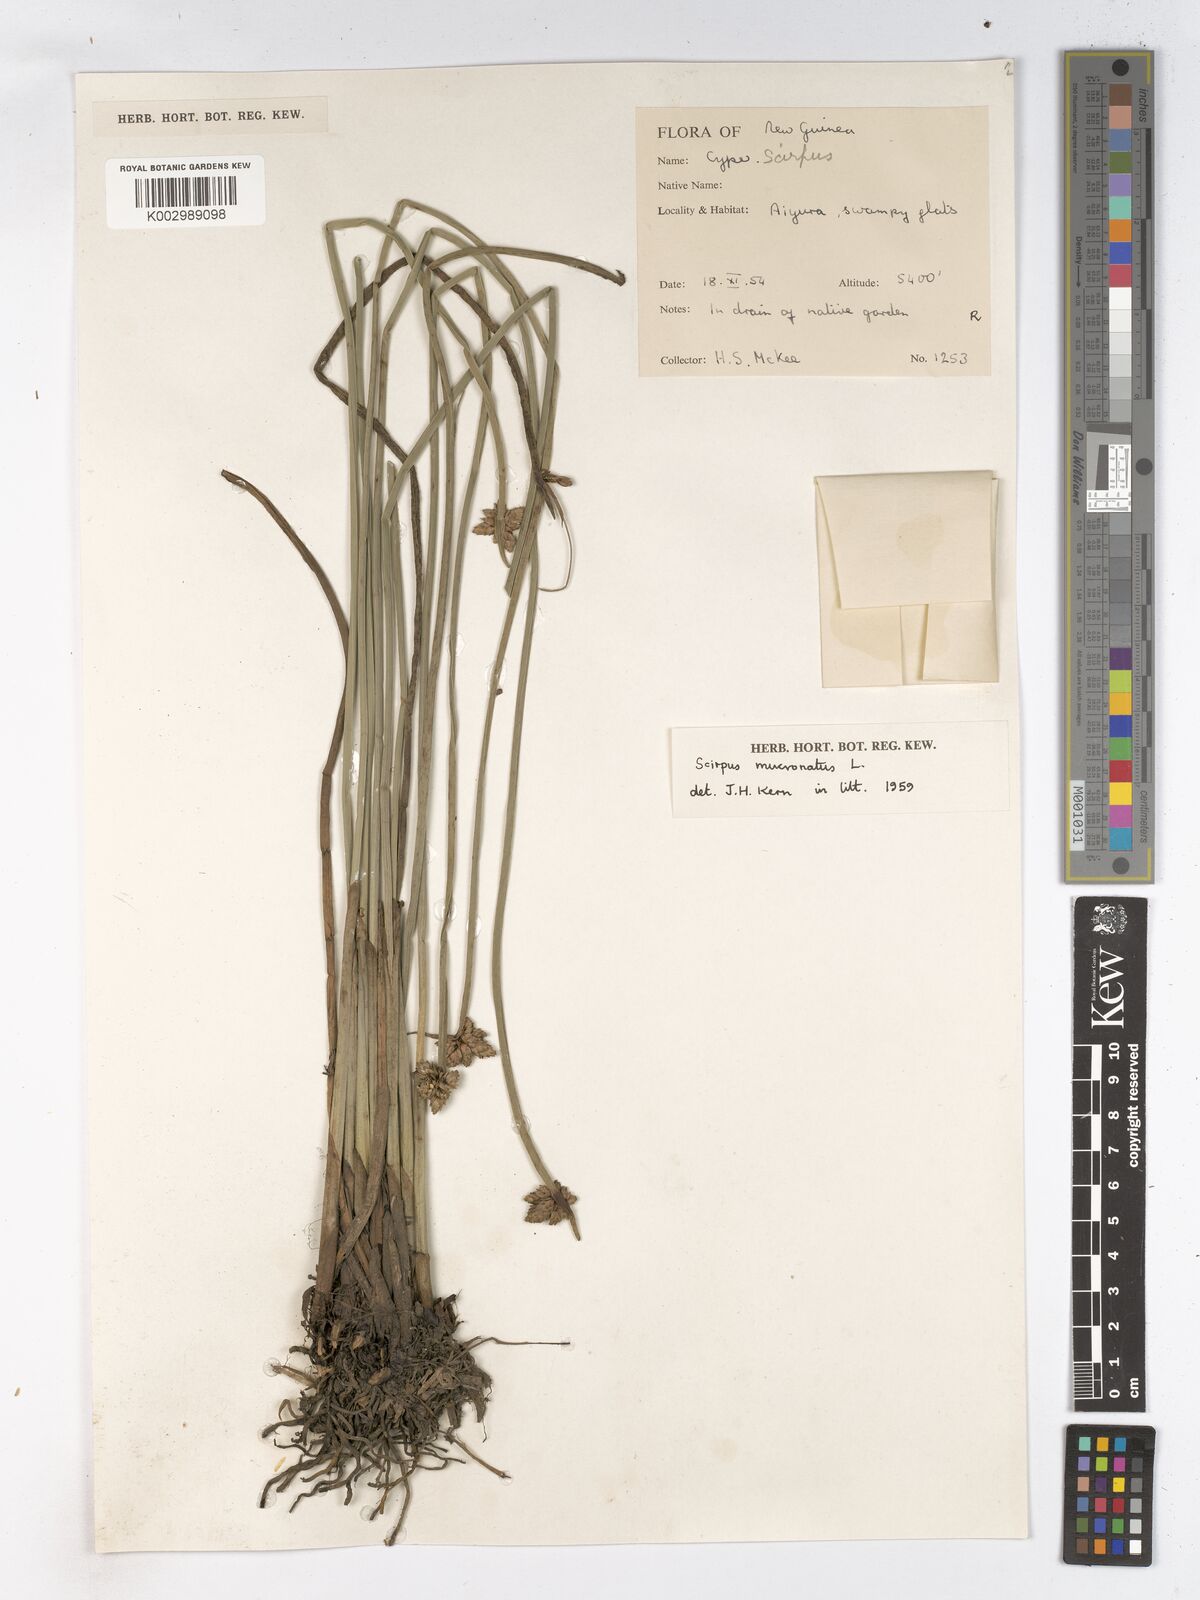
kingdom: Plantae
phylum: Tracheophyta
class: Liliopsida
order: Poales
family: Cyperaceae
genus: Schoenoplectiella
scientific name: Schoenoplectiella mucronata
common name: Bog bulrush
